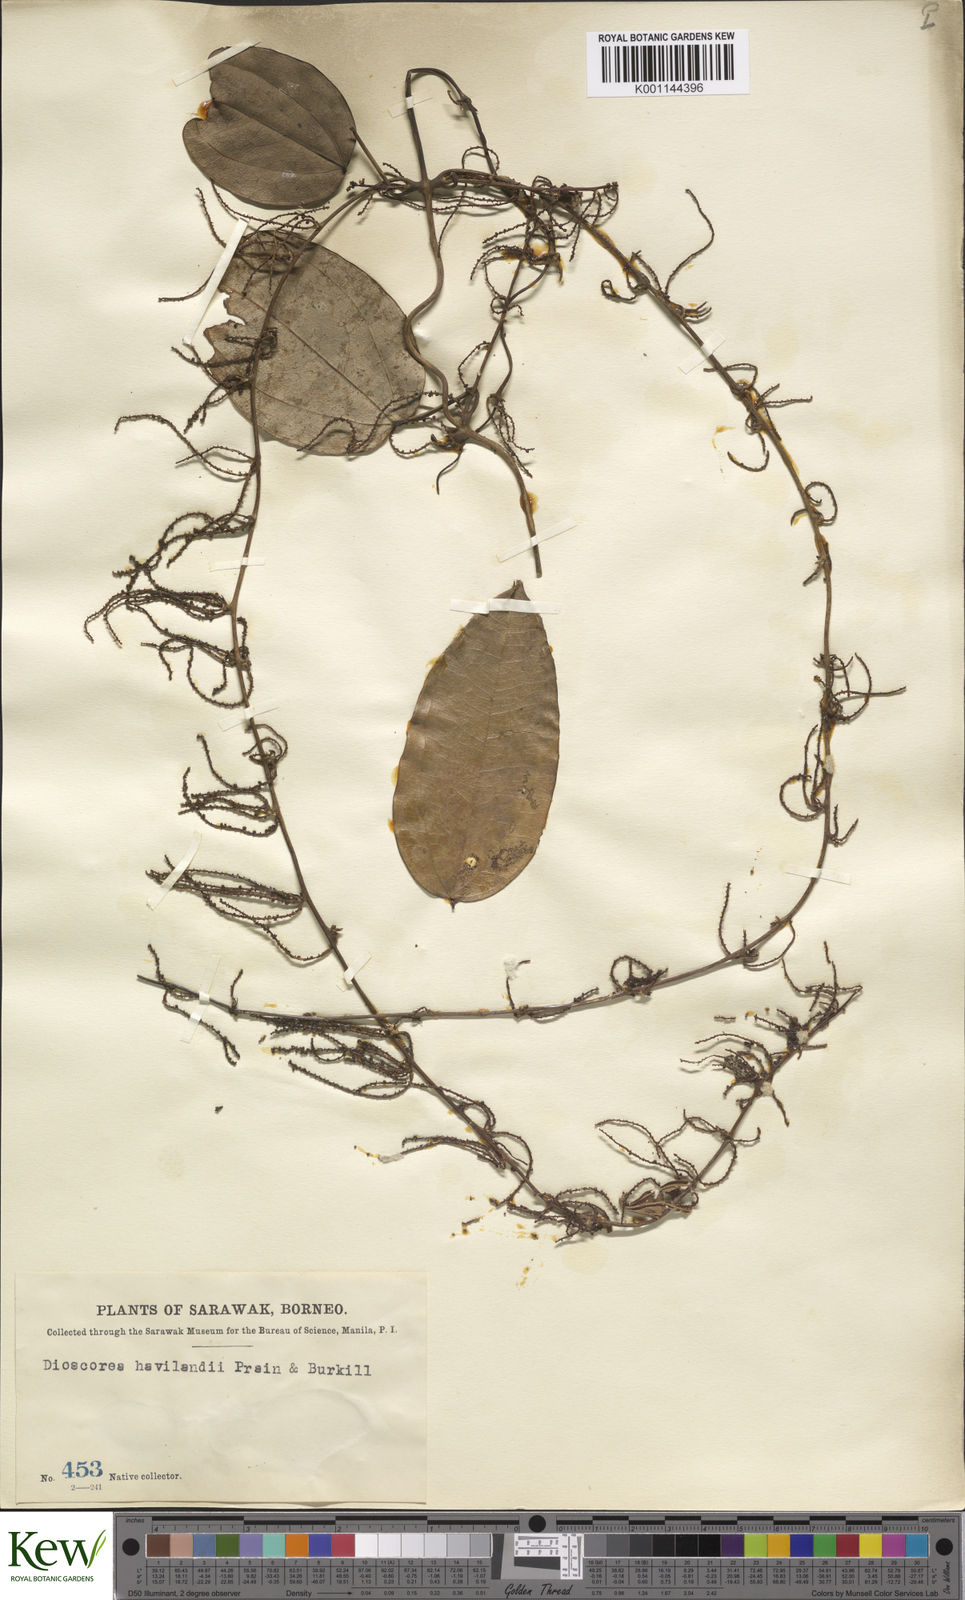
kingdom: Plantae
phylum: Tracheophyta
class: Liliopsida
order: Dioscoreales
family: Dioscoreaceae
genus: Dioscorea
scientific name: Dioscorea havilandii
